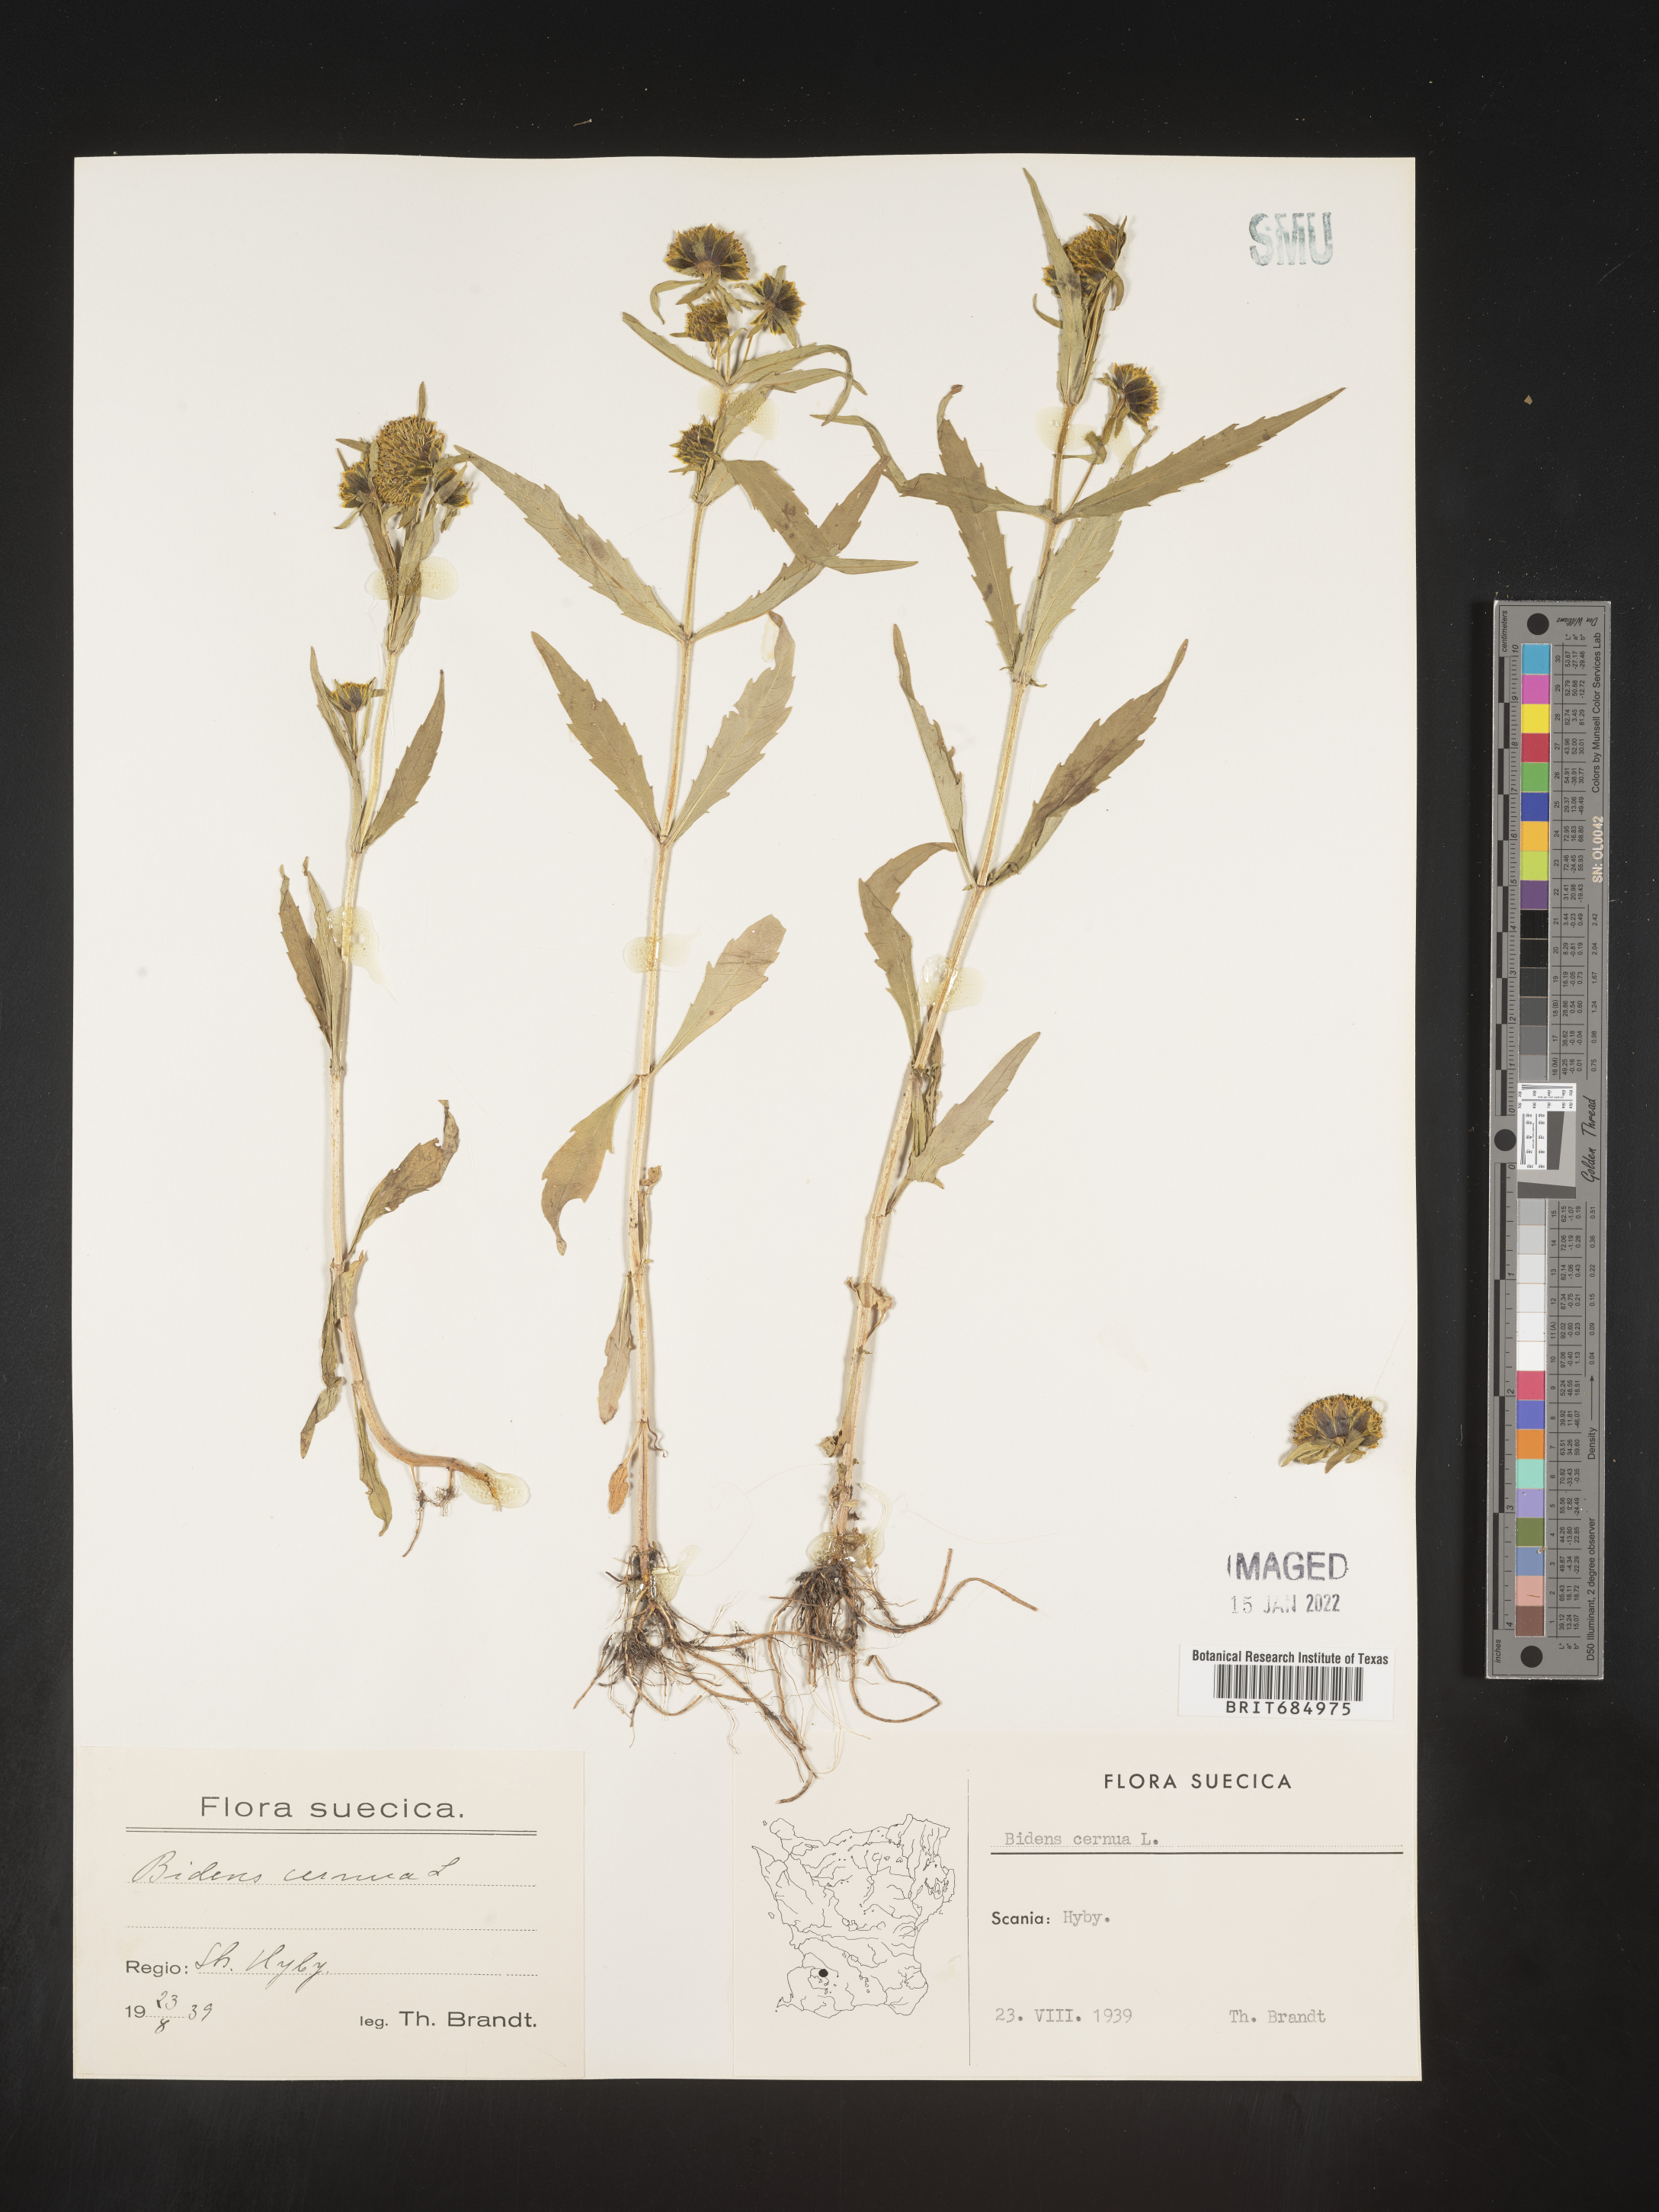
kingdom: Plantae
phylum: Tracheophyta
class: Magnoliopsida
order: Asterales
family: Asteraceae
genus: Bidens
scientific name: Bidens
